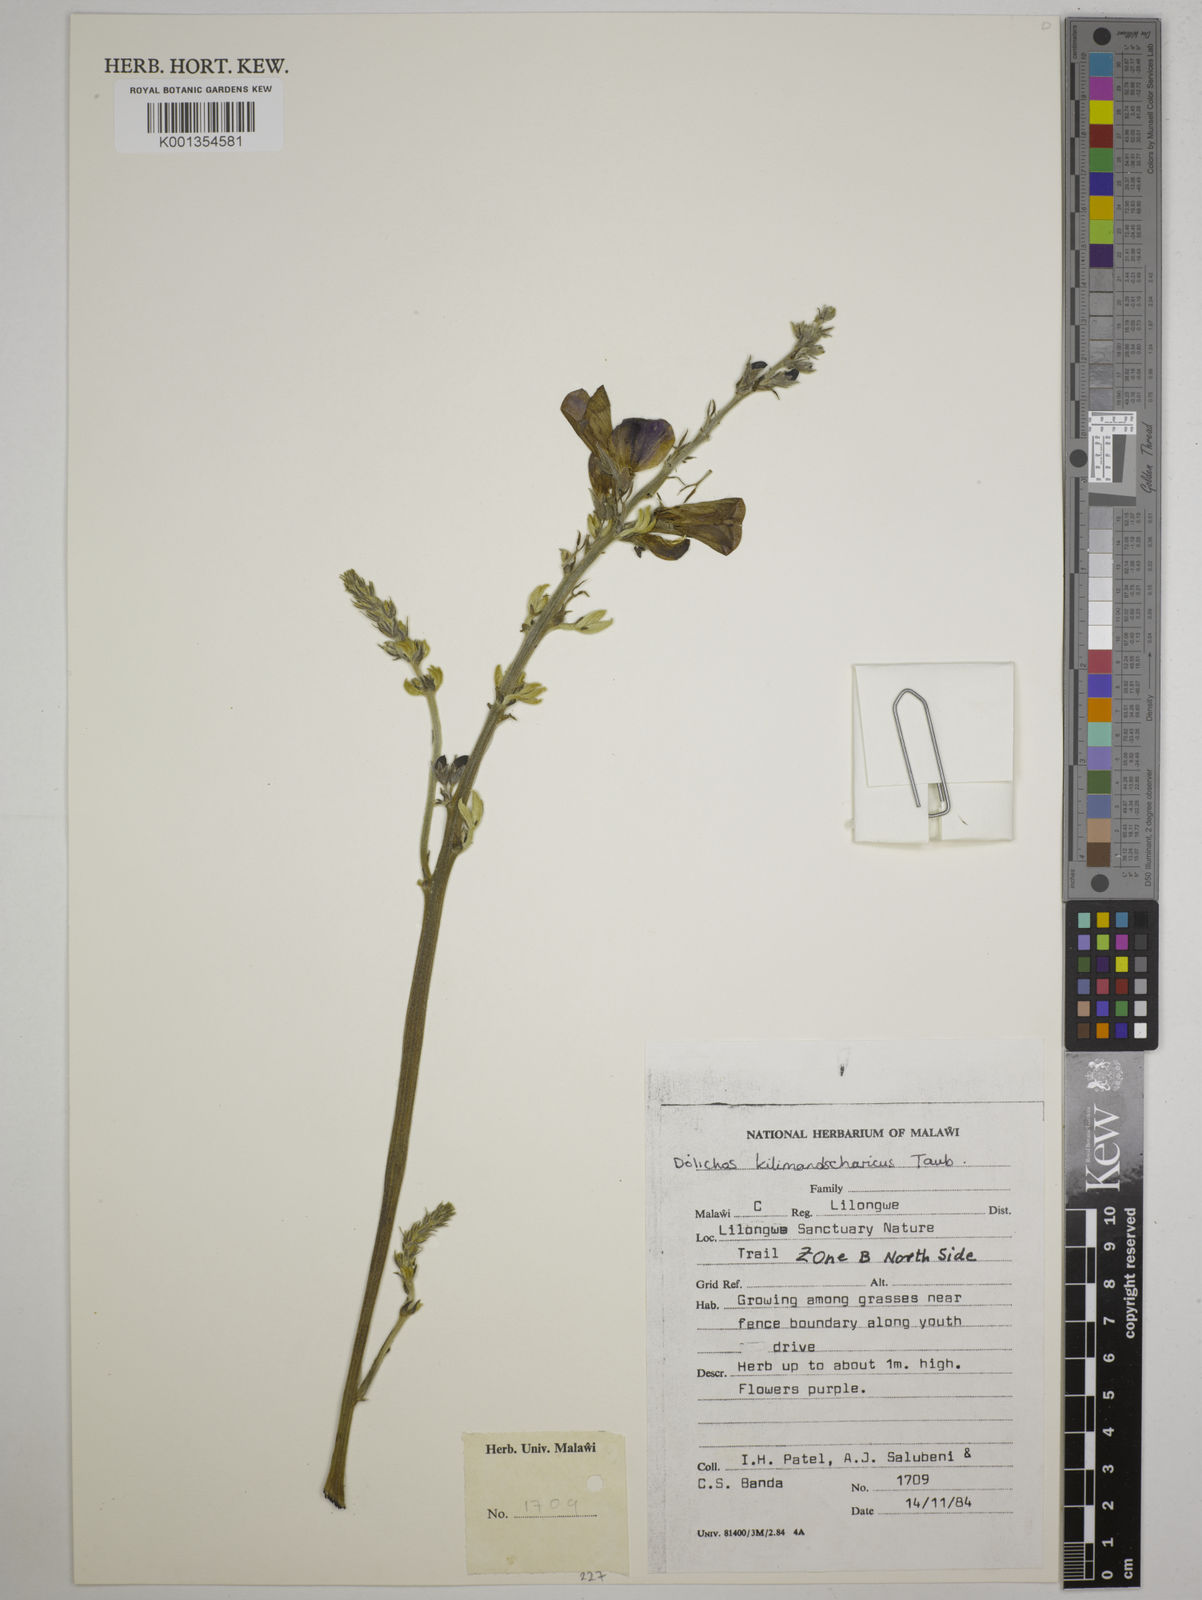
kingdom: Plantae
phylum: Tracheophyta
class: Magnoliopsida
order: Fabales
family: Fabaceae
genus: Dolichos
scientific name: Dolichos kilimandscharicus
